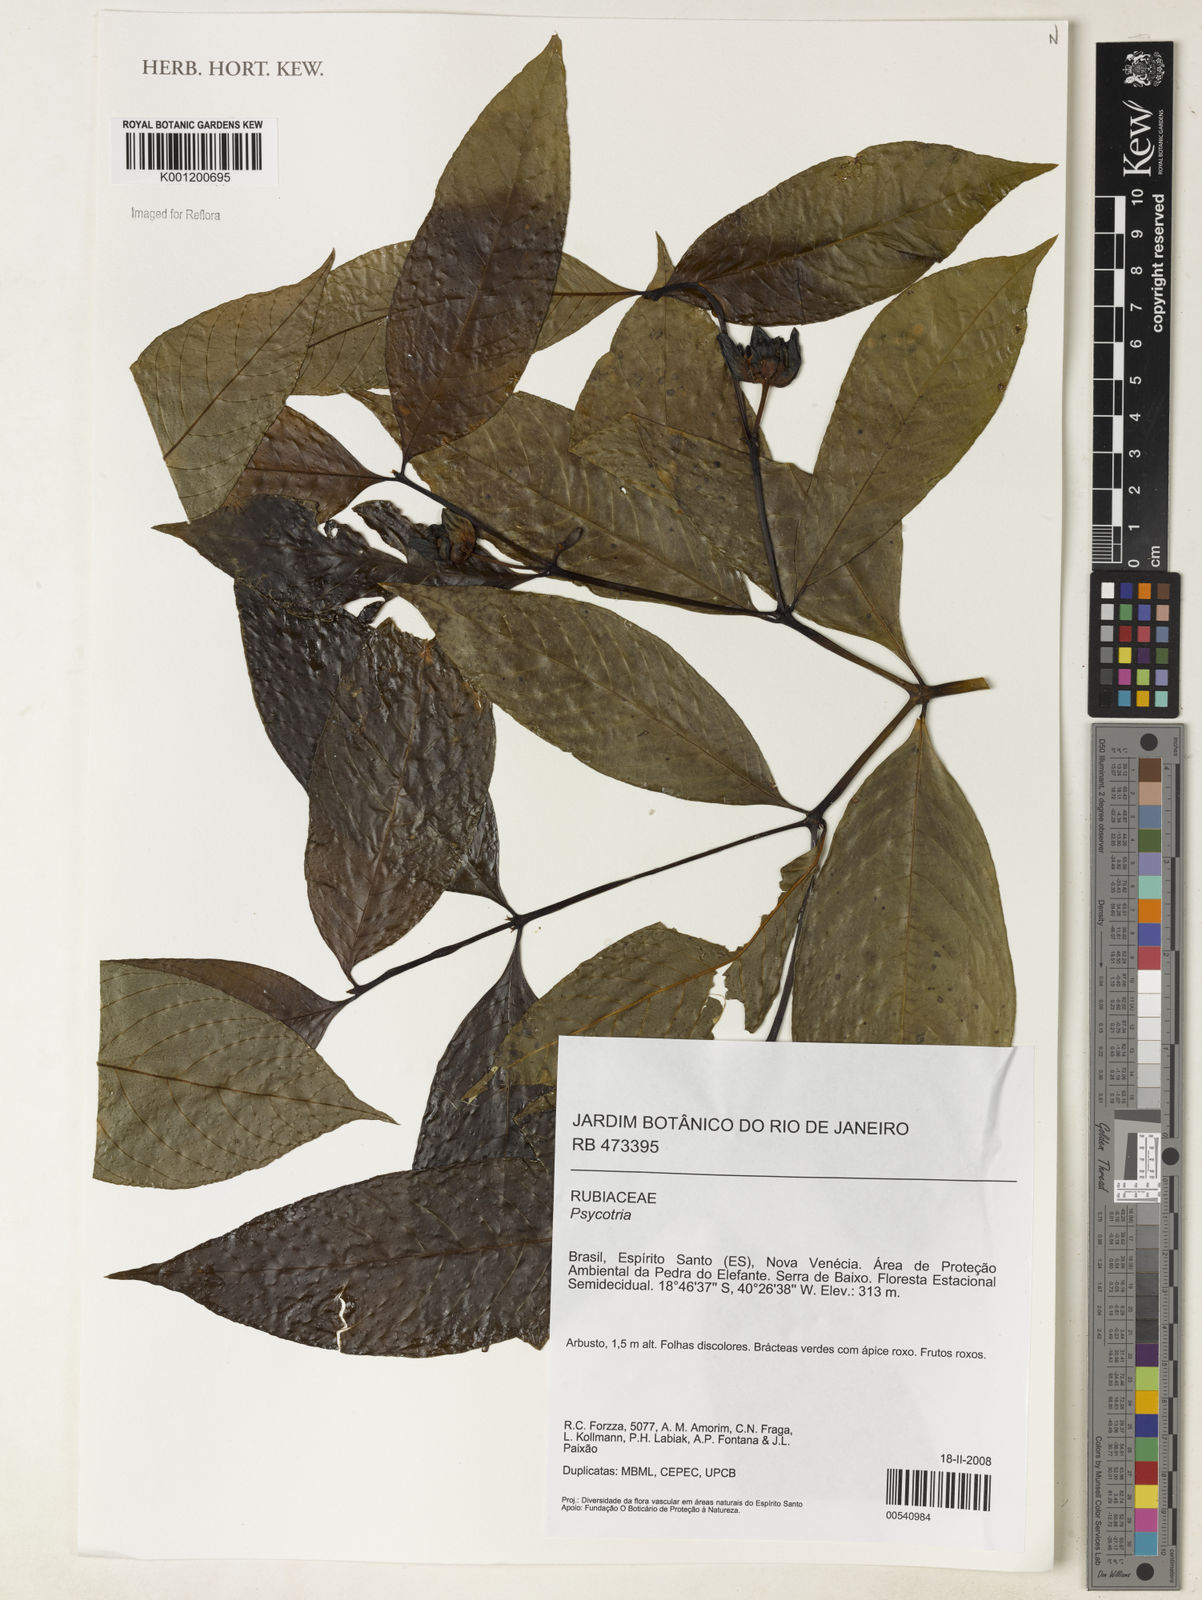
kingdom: Plantae
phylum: Tracheophyta
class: Magnoliopsida
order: Gentianales
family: Rubiaceae
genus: Psychotria
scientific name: Psychotria
